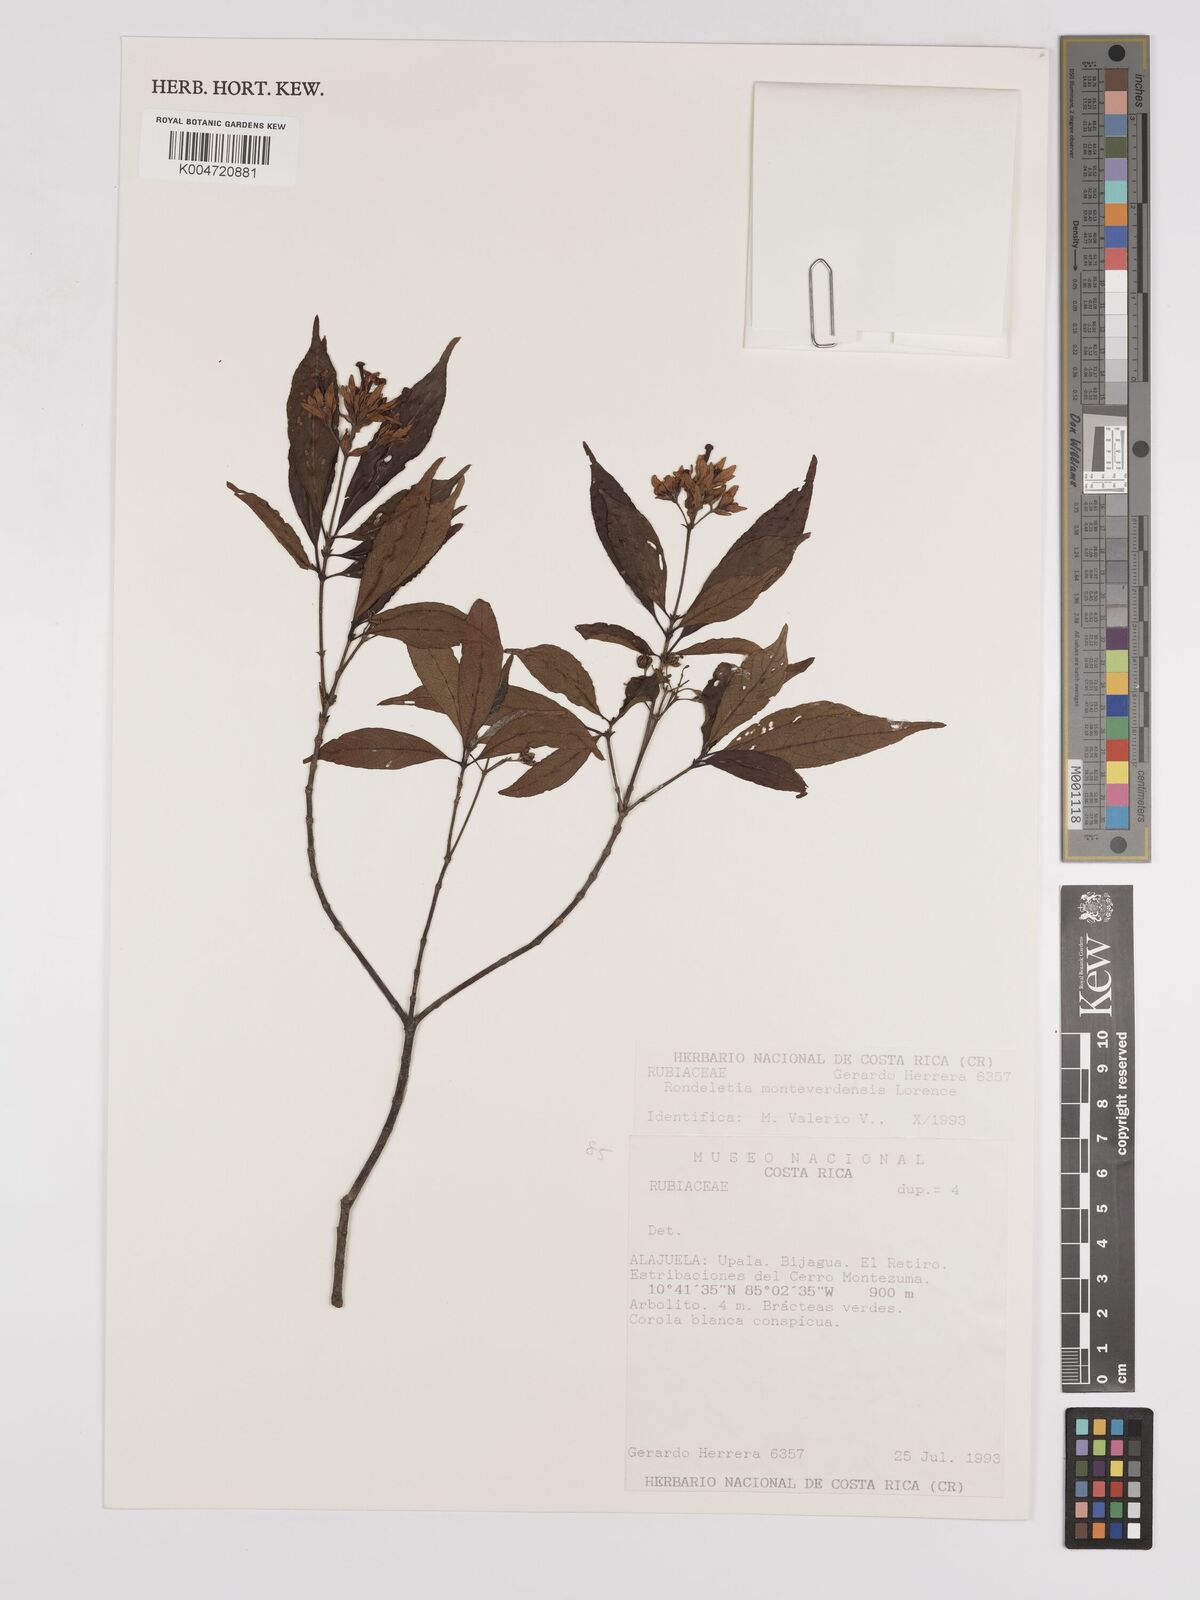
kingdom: Plantae
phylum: Tracheophyta
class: Magnoliopsida
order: Gentianales
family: Rubiaceae
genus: Arachnothryx
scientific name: Arachnothryx monteverdensis
